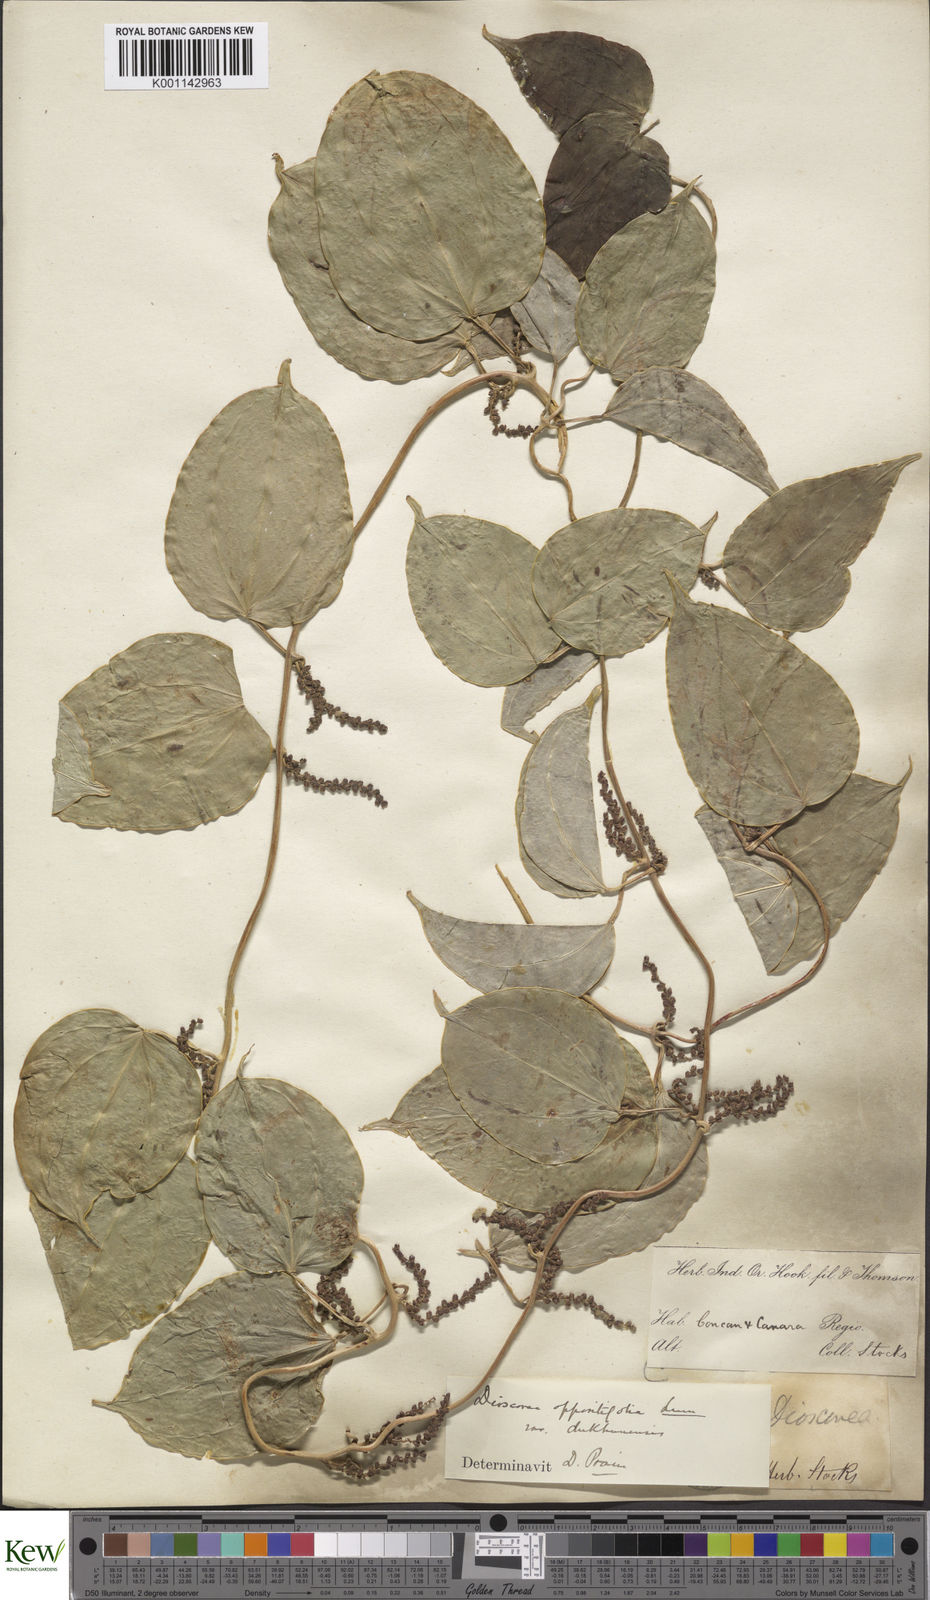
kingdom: Plantae
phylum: Tracheophyta
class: Liliopsida
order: Dioscoreales
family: Dioscoreaceae
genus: Dioscorea
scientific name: Dioscorea oppositifolia
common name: Chinese yam
